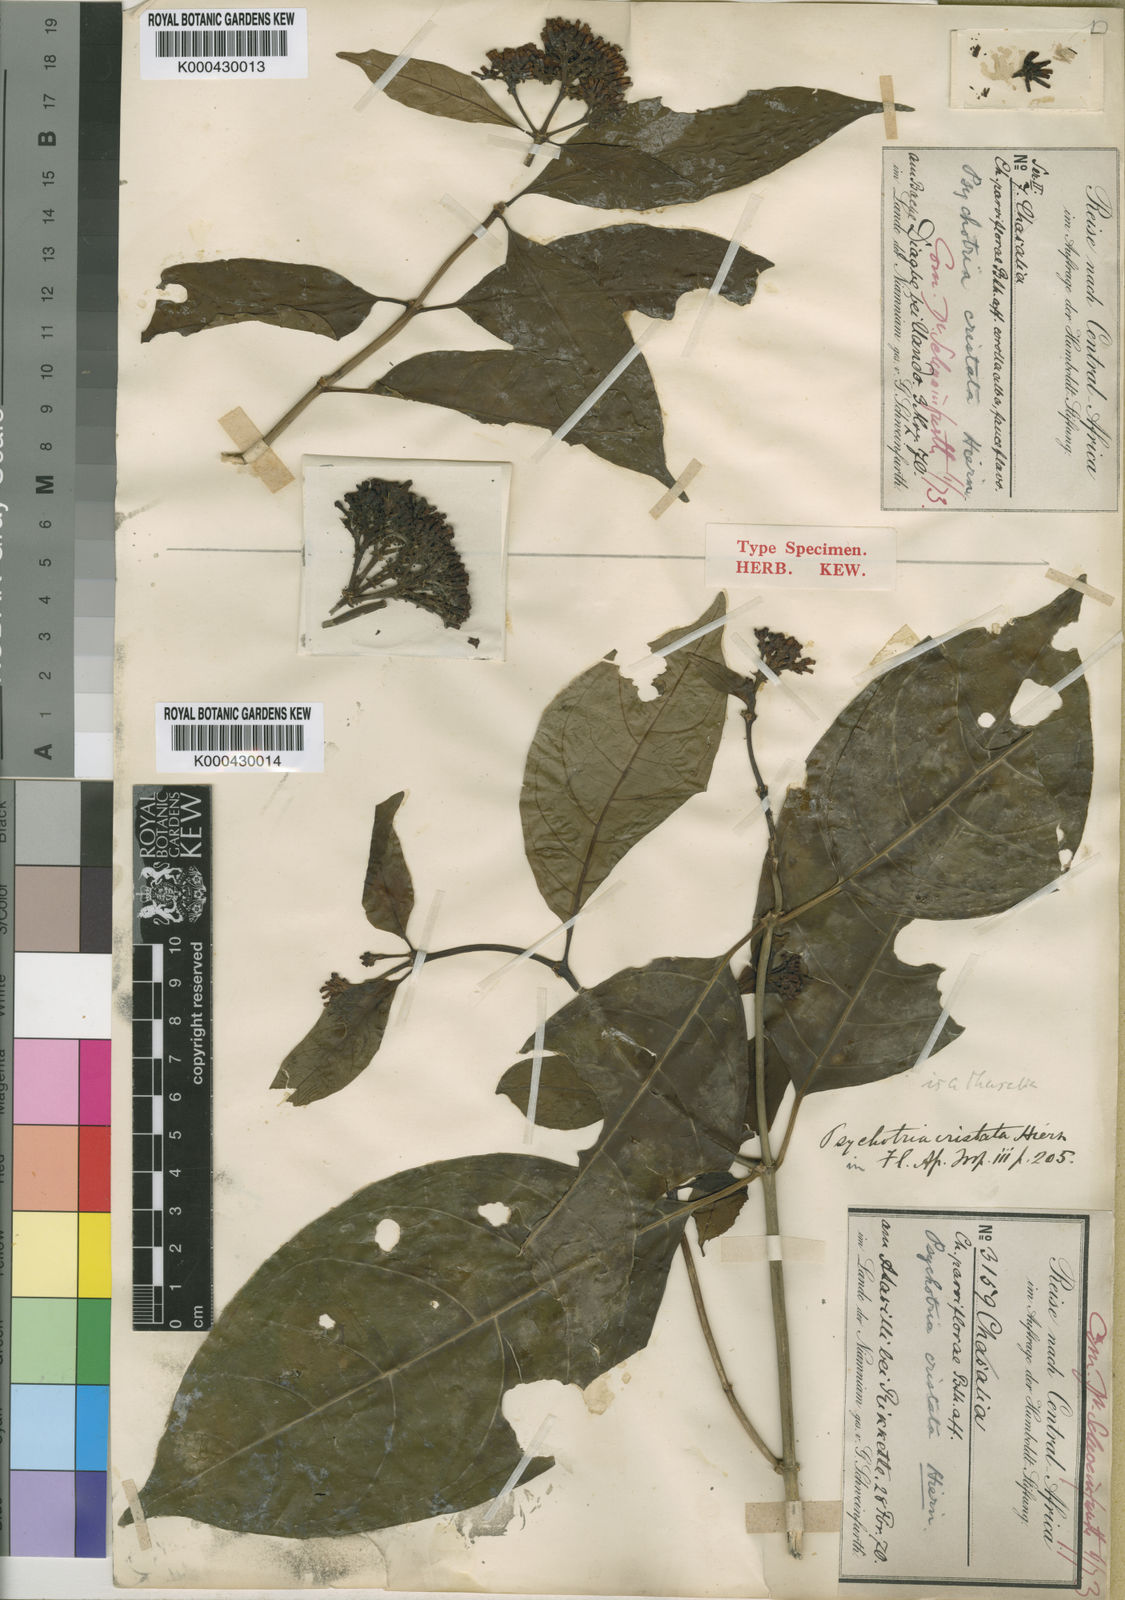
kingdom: Plantae
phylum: Tracheophyta
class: Magnoliopsida
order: Gentianales
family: Rubiaceae
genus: Chassalia
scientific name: Chassalia cristata
